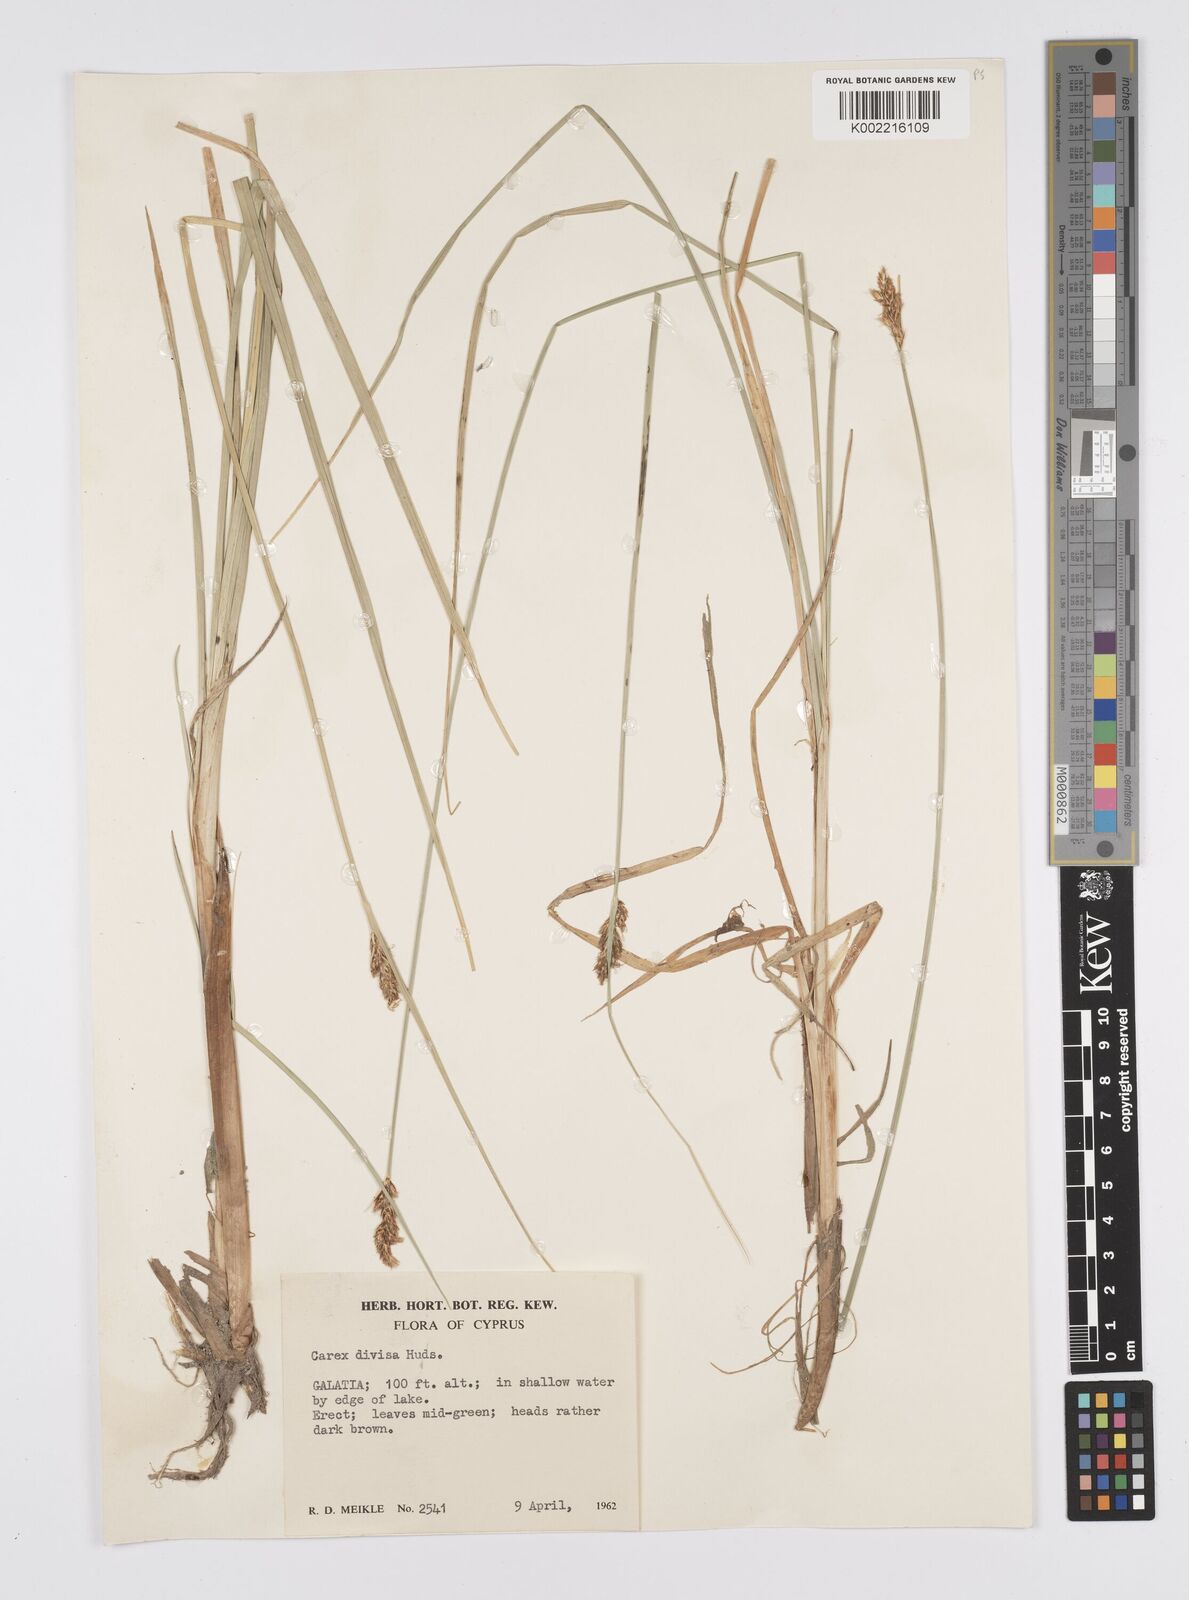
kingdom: Plantae
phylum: Tracheophyta
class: Liliopsida
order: Poales
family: Cyperaceae
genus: Carex
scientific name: Carex divisa
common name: Divided sedge
